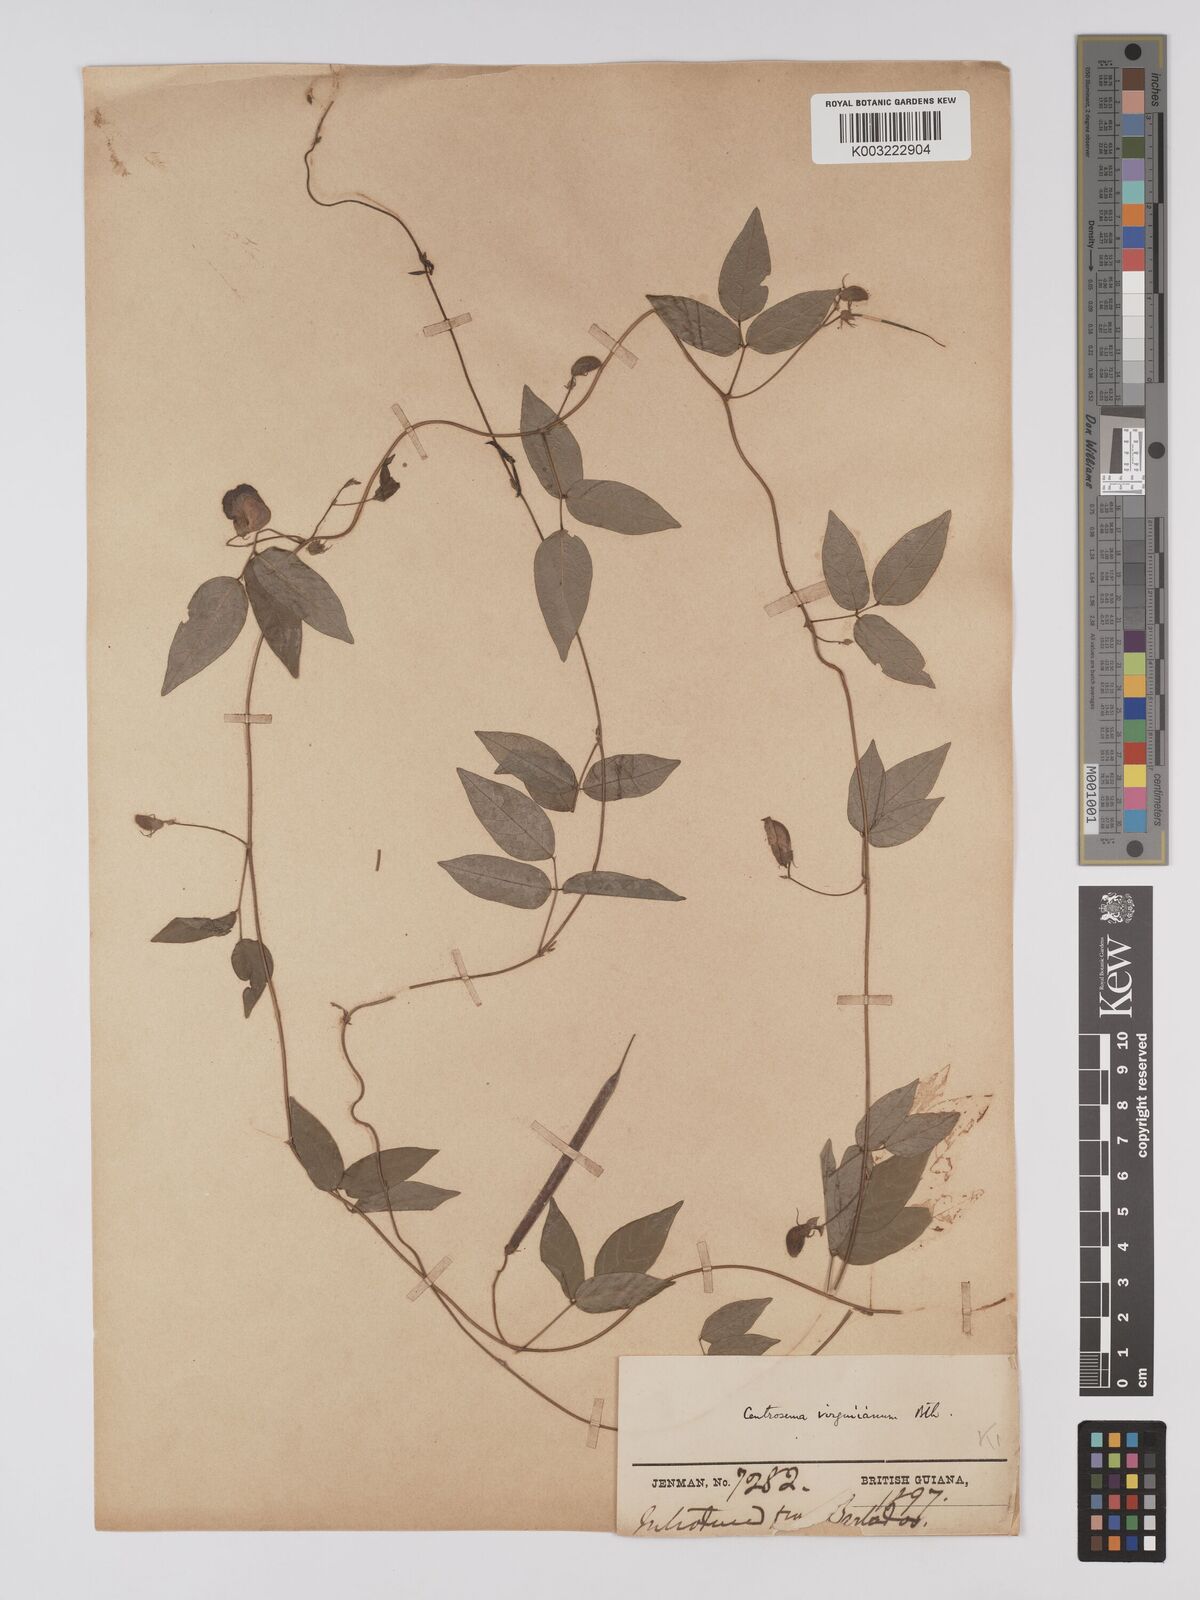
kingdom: Plantae
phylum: Tracheophyta
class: Magnoliopsida
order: Fabales
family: Fabaceae
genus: Centrosema
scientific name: Centrosema virginianum
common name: Butterfly-pea
